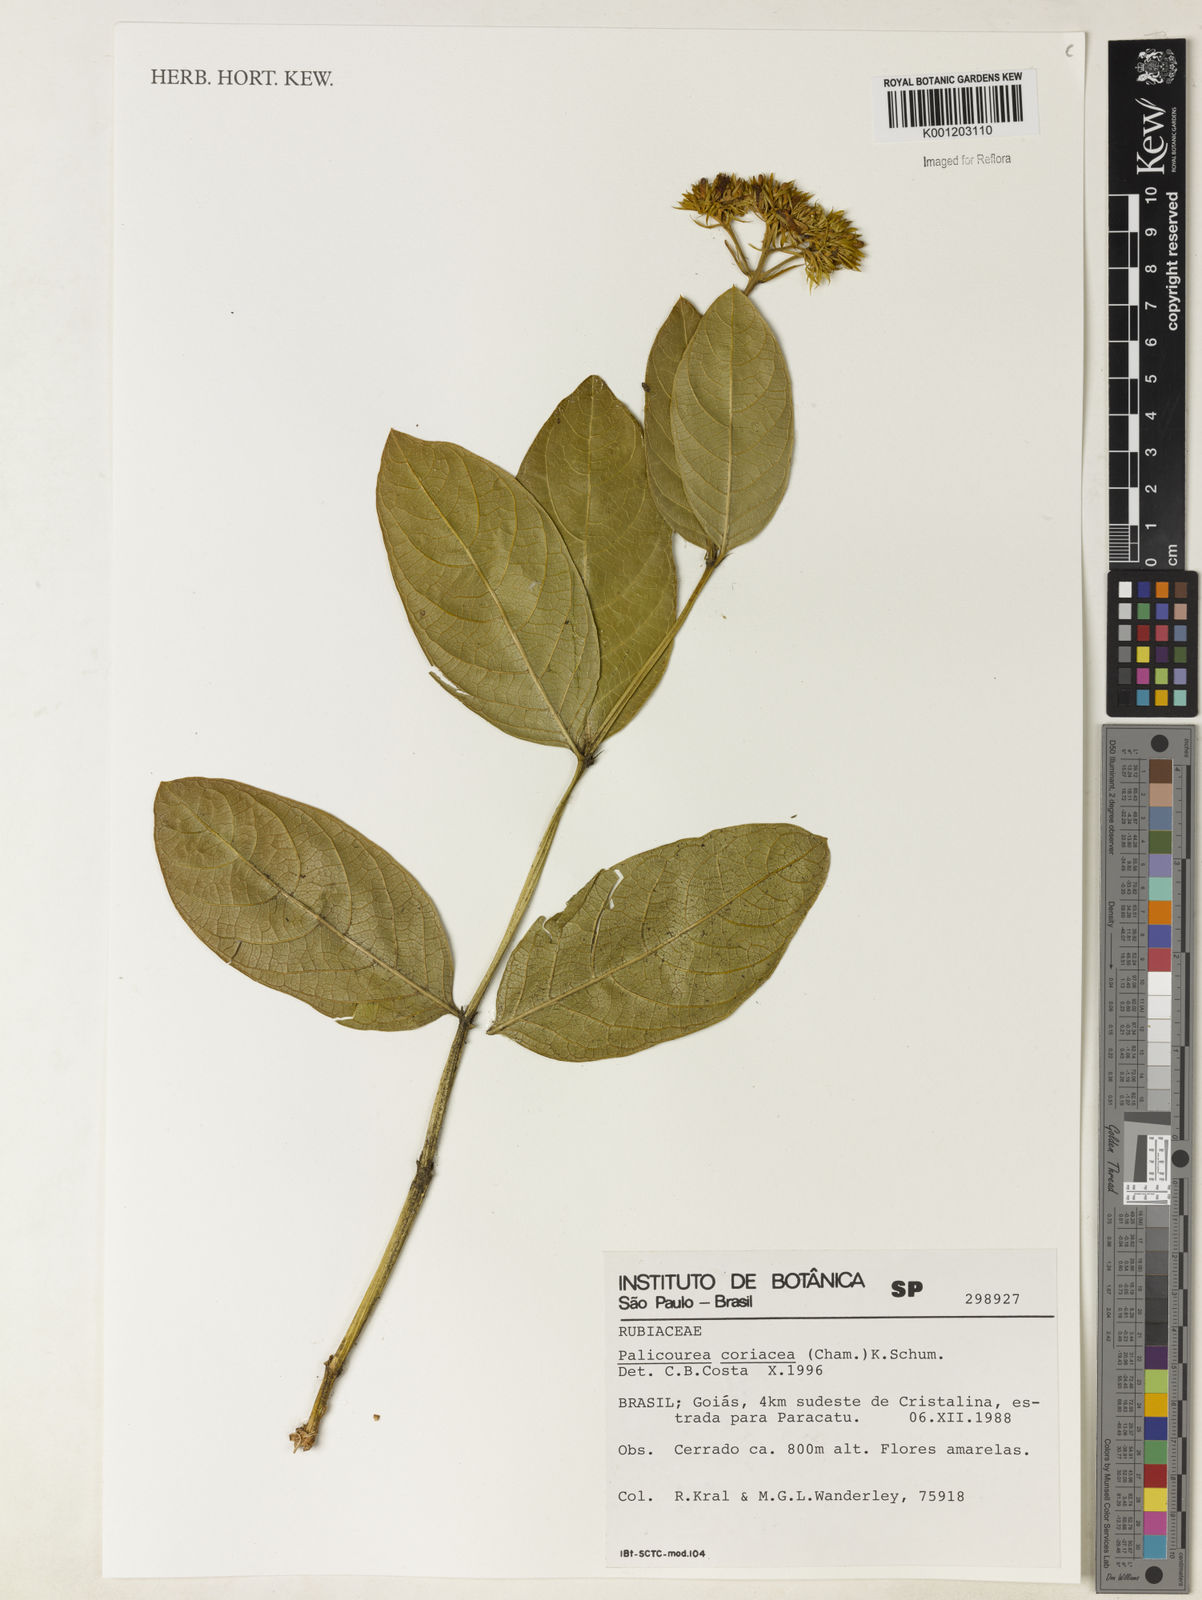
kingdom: Plantae
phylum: Tracheophyta
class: Magnoliopsida
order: Gentianales
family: Rubiaceae
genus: Palicourea
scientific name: Palicourea coriacea
